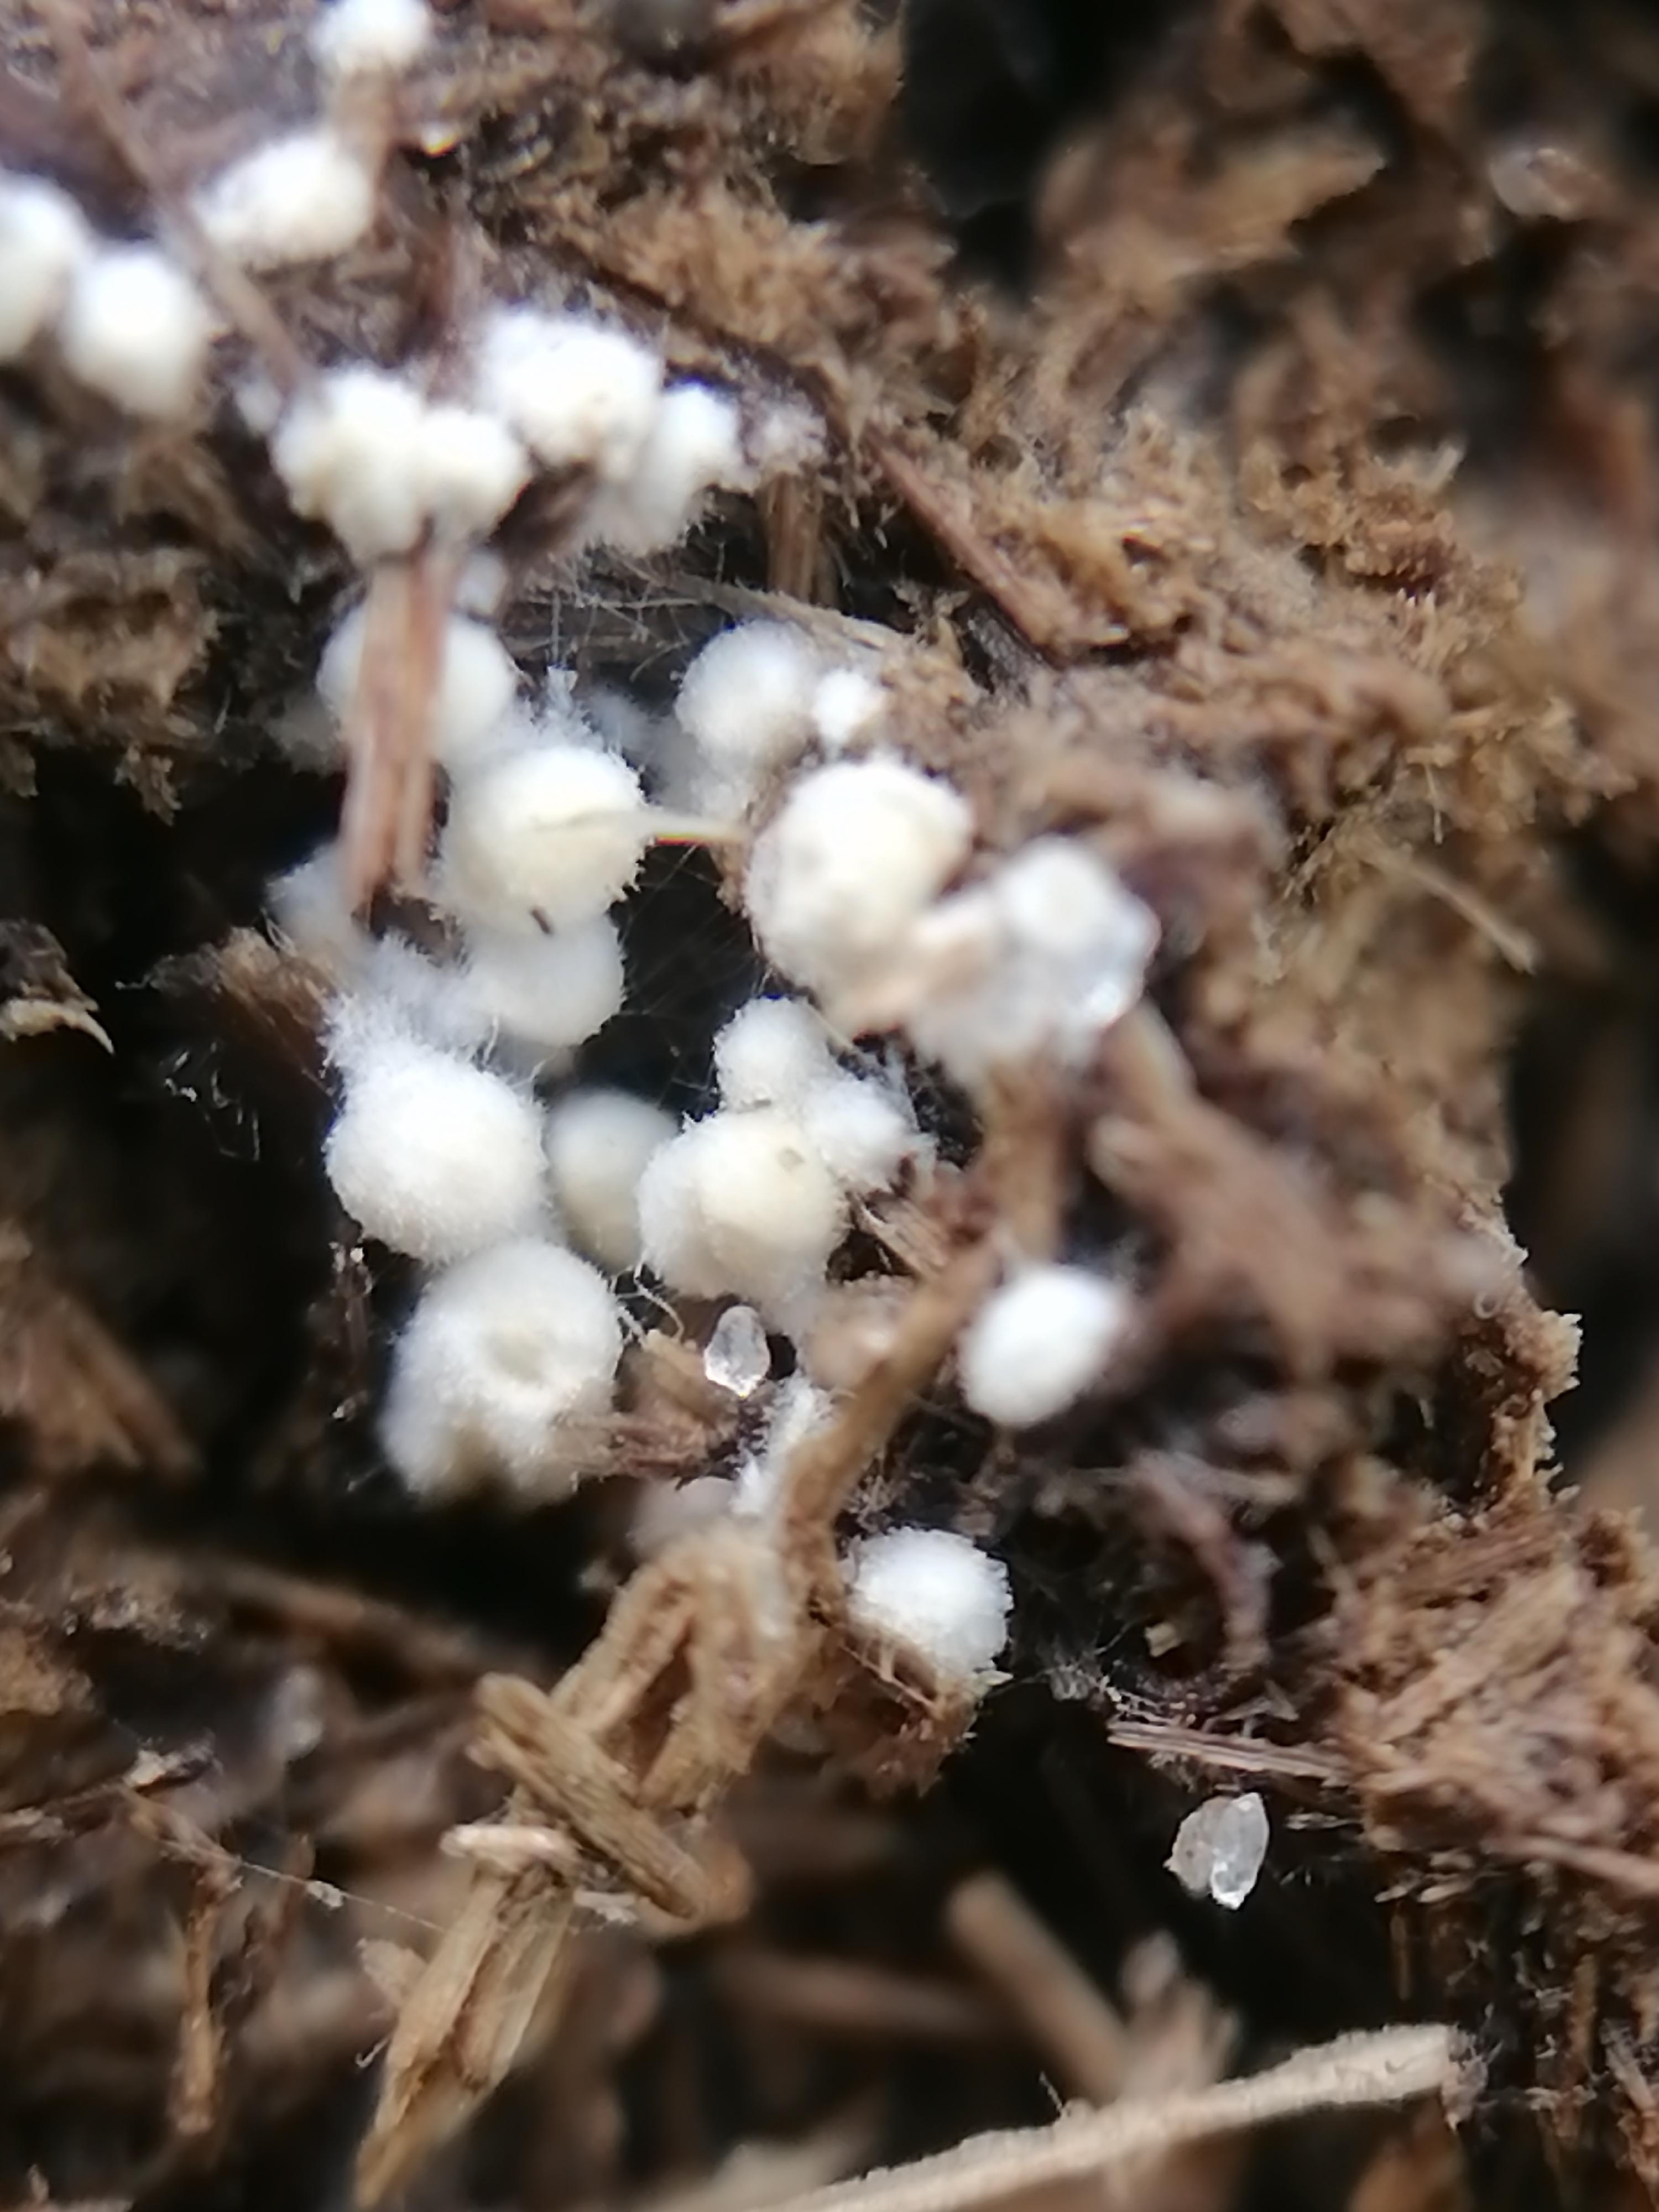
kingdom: Fungi
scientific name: Fungi
